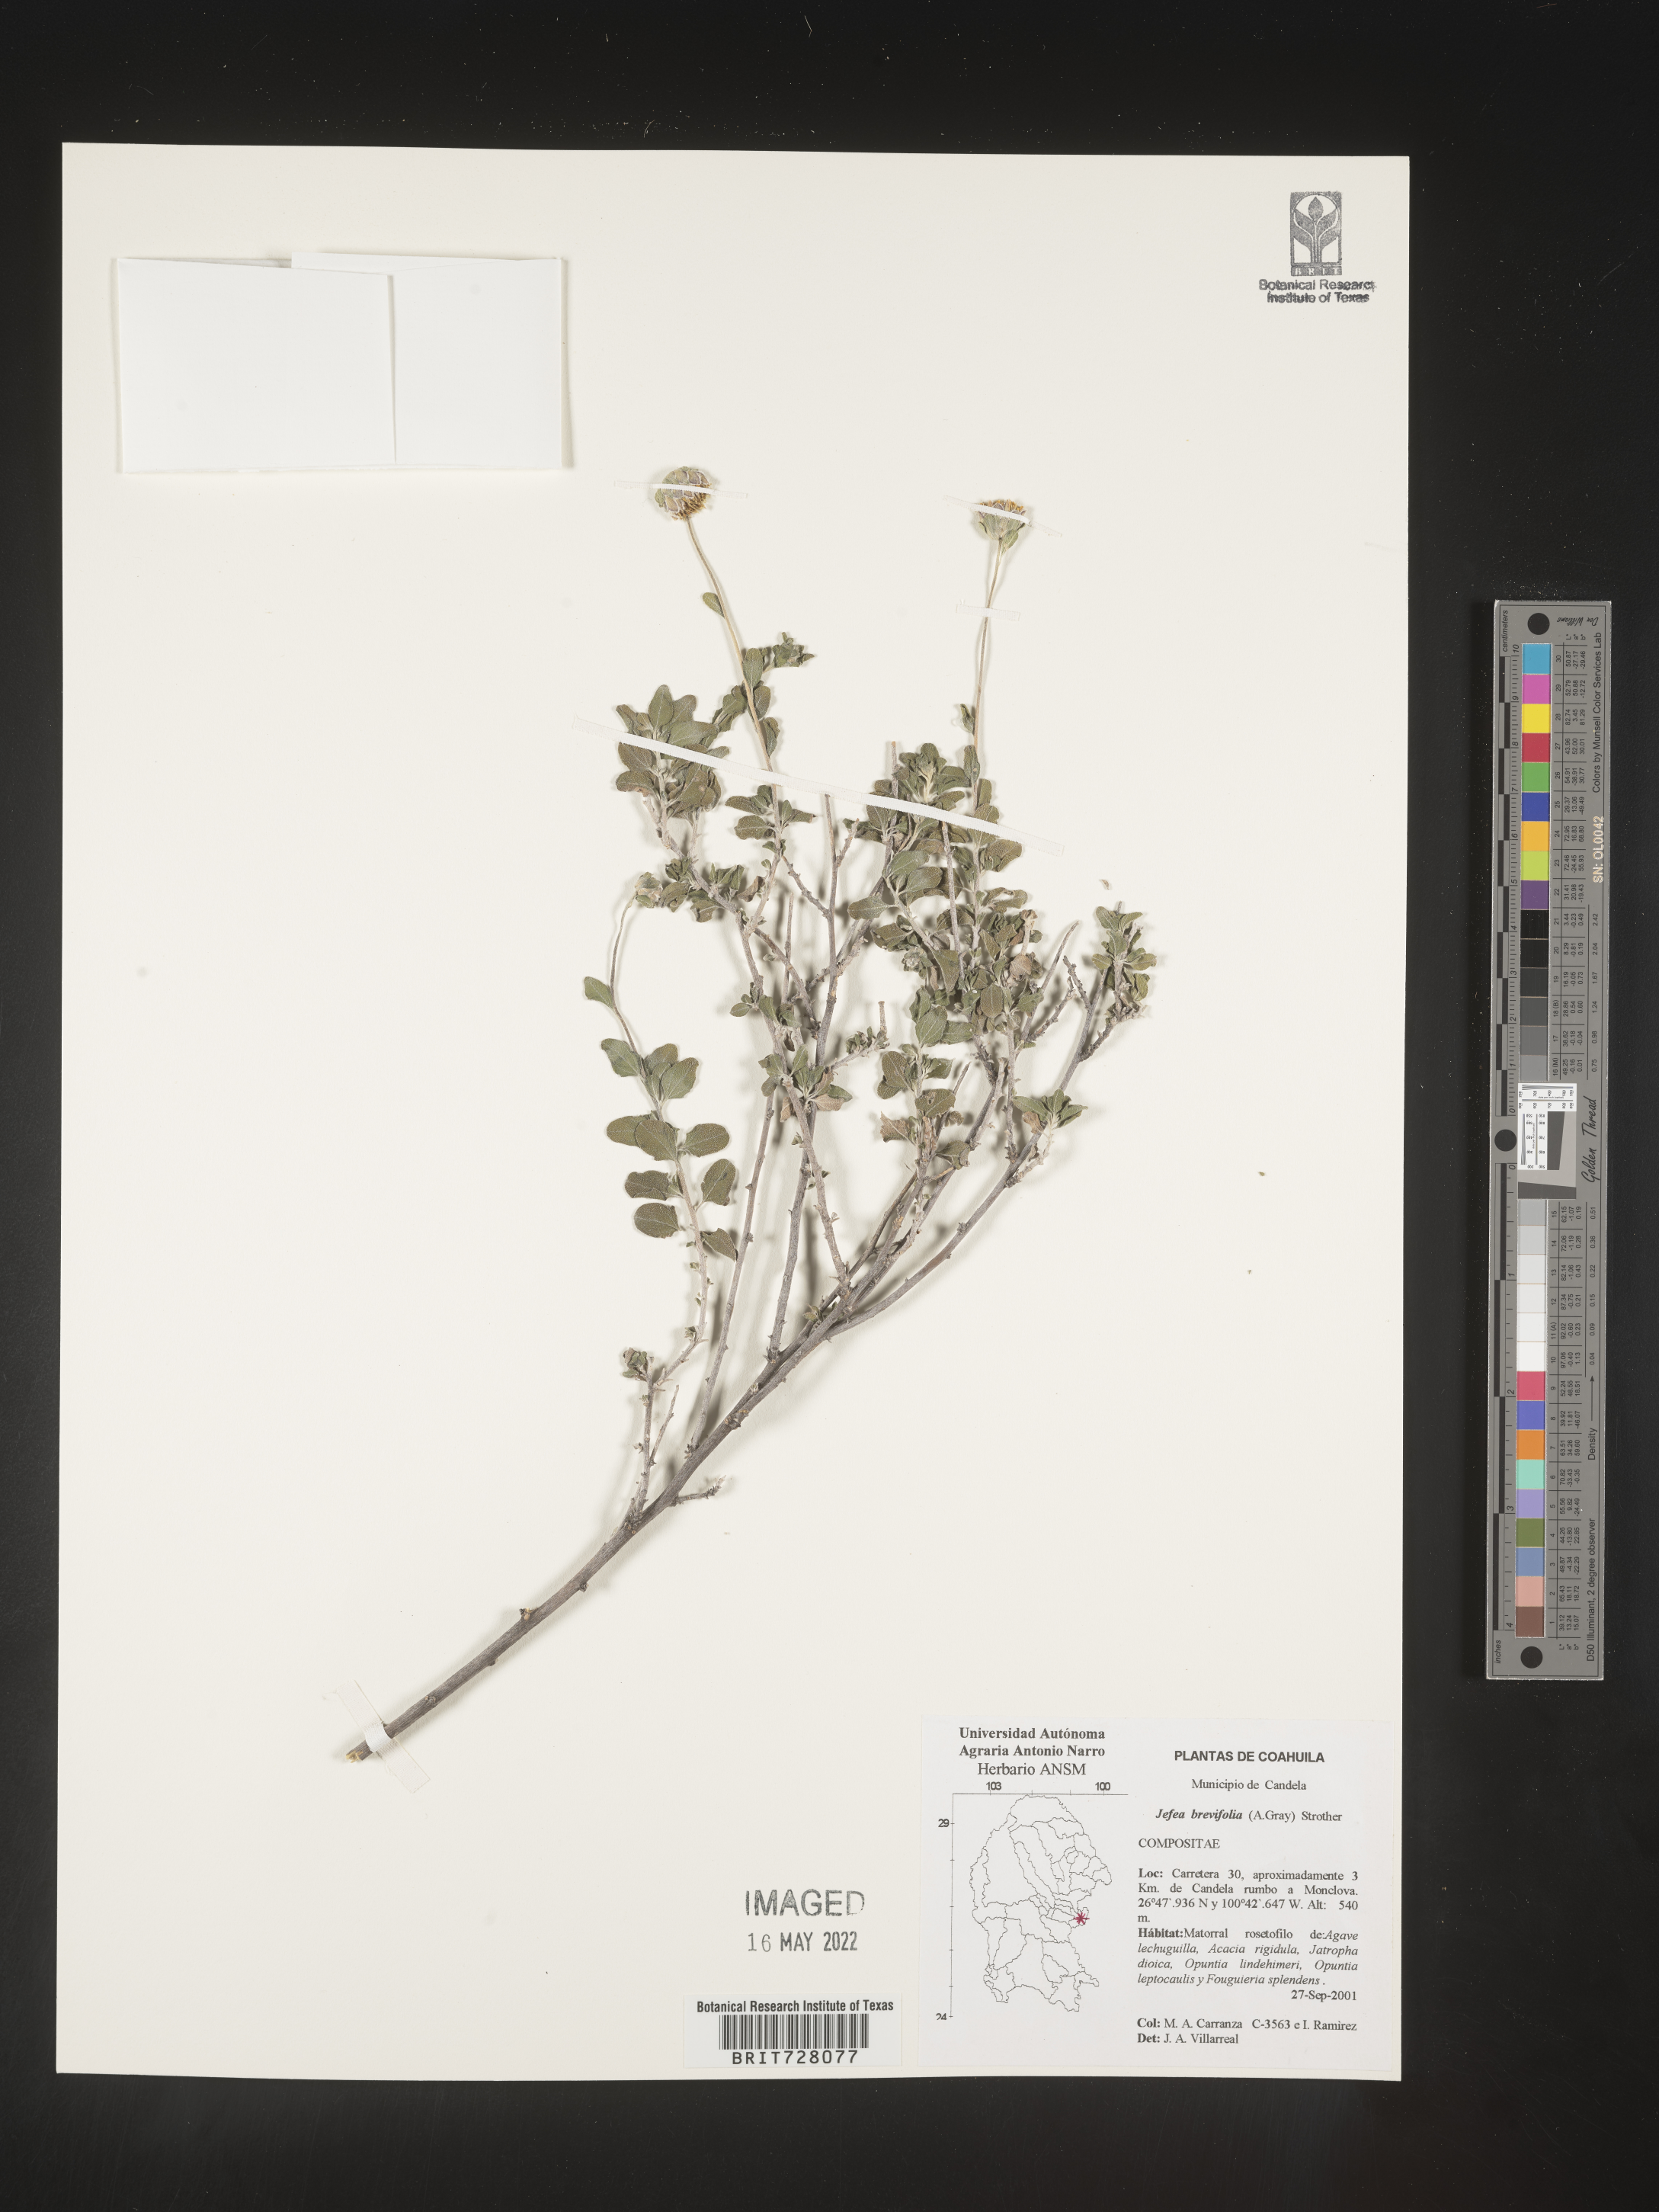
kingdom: Plantae
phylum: Tracheophyta
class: Magnoliopsida
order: Asterales
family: Asteraceae
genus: Jefea
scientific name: Jefea brevifolia
